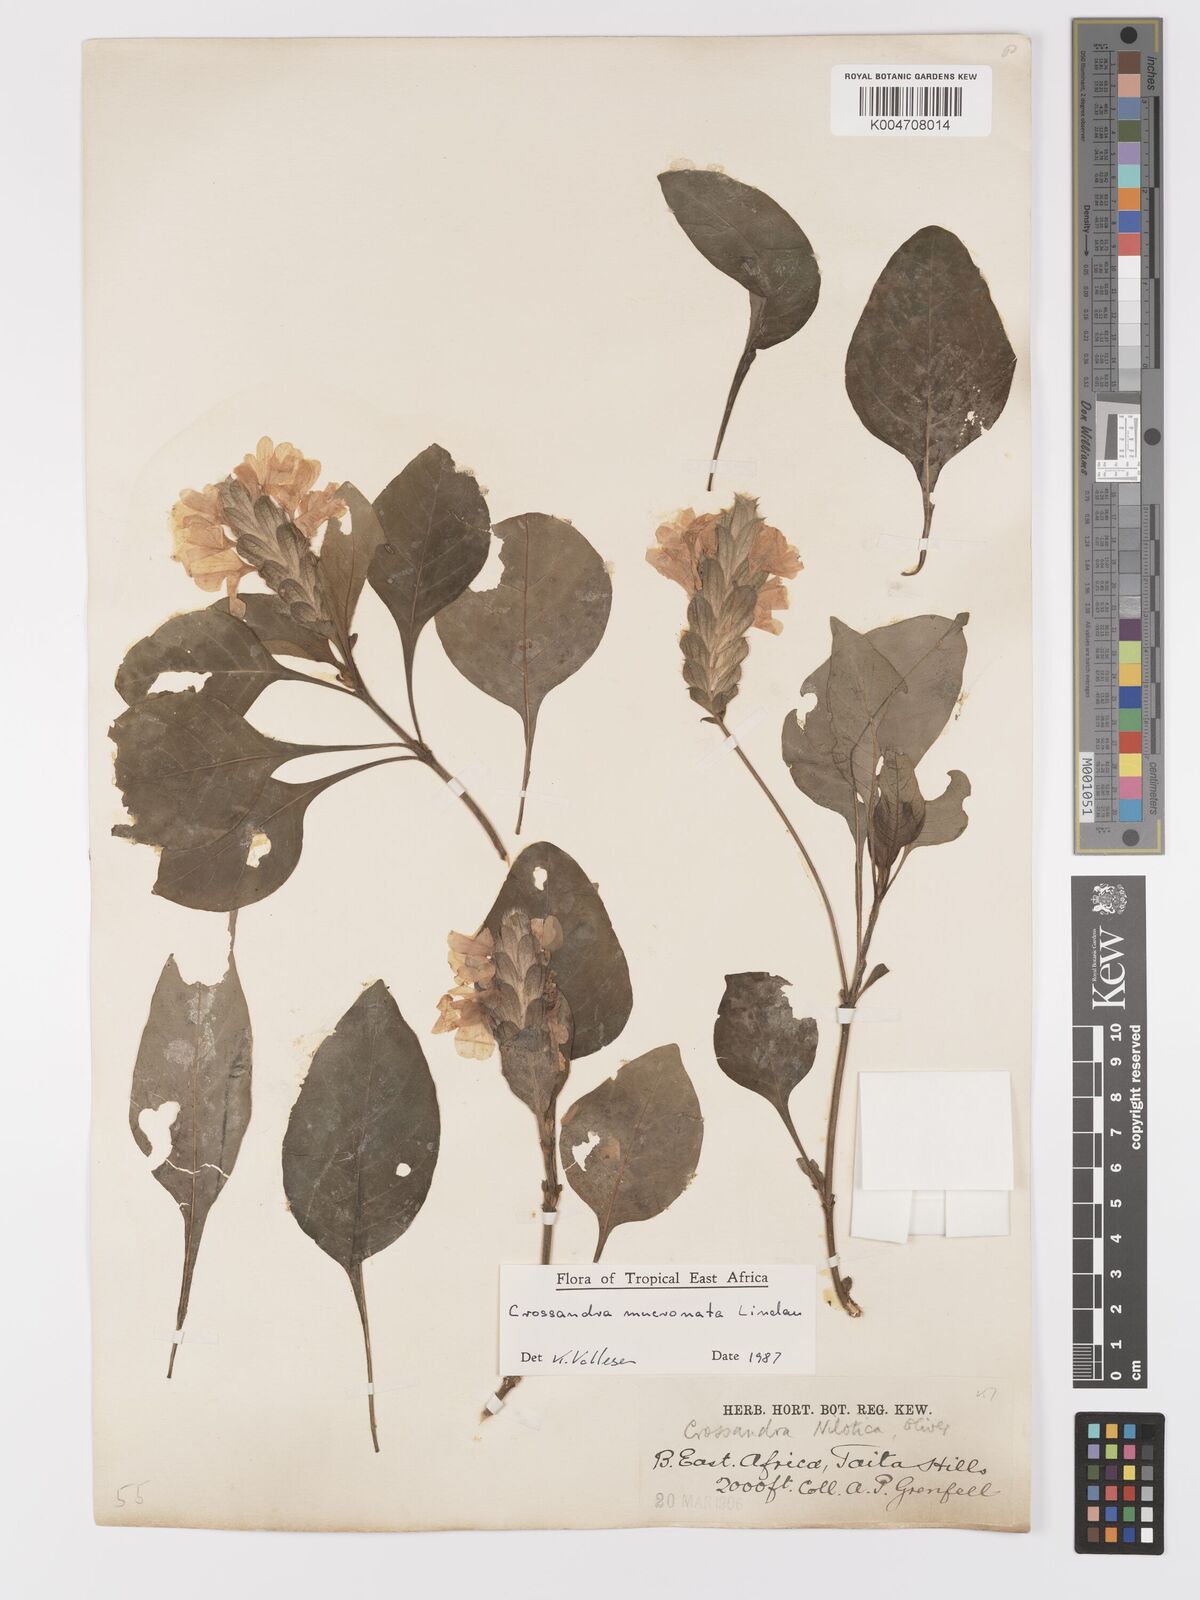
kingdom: Plantae
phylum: Tracheophyta
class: Magnoliopsida
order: Lamiales
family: Acanthaceae
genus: Crossandra
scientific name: Crossandra mucronata
